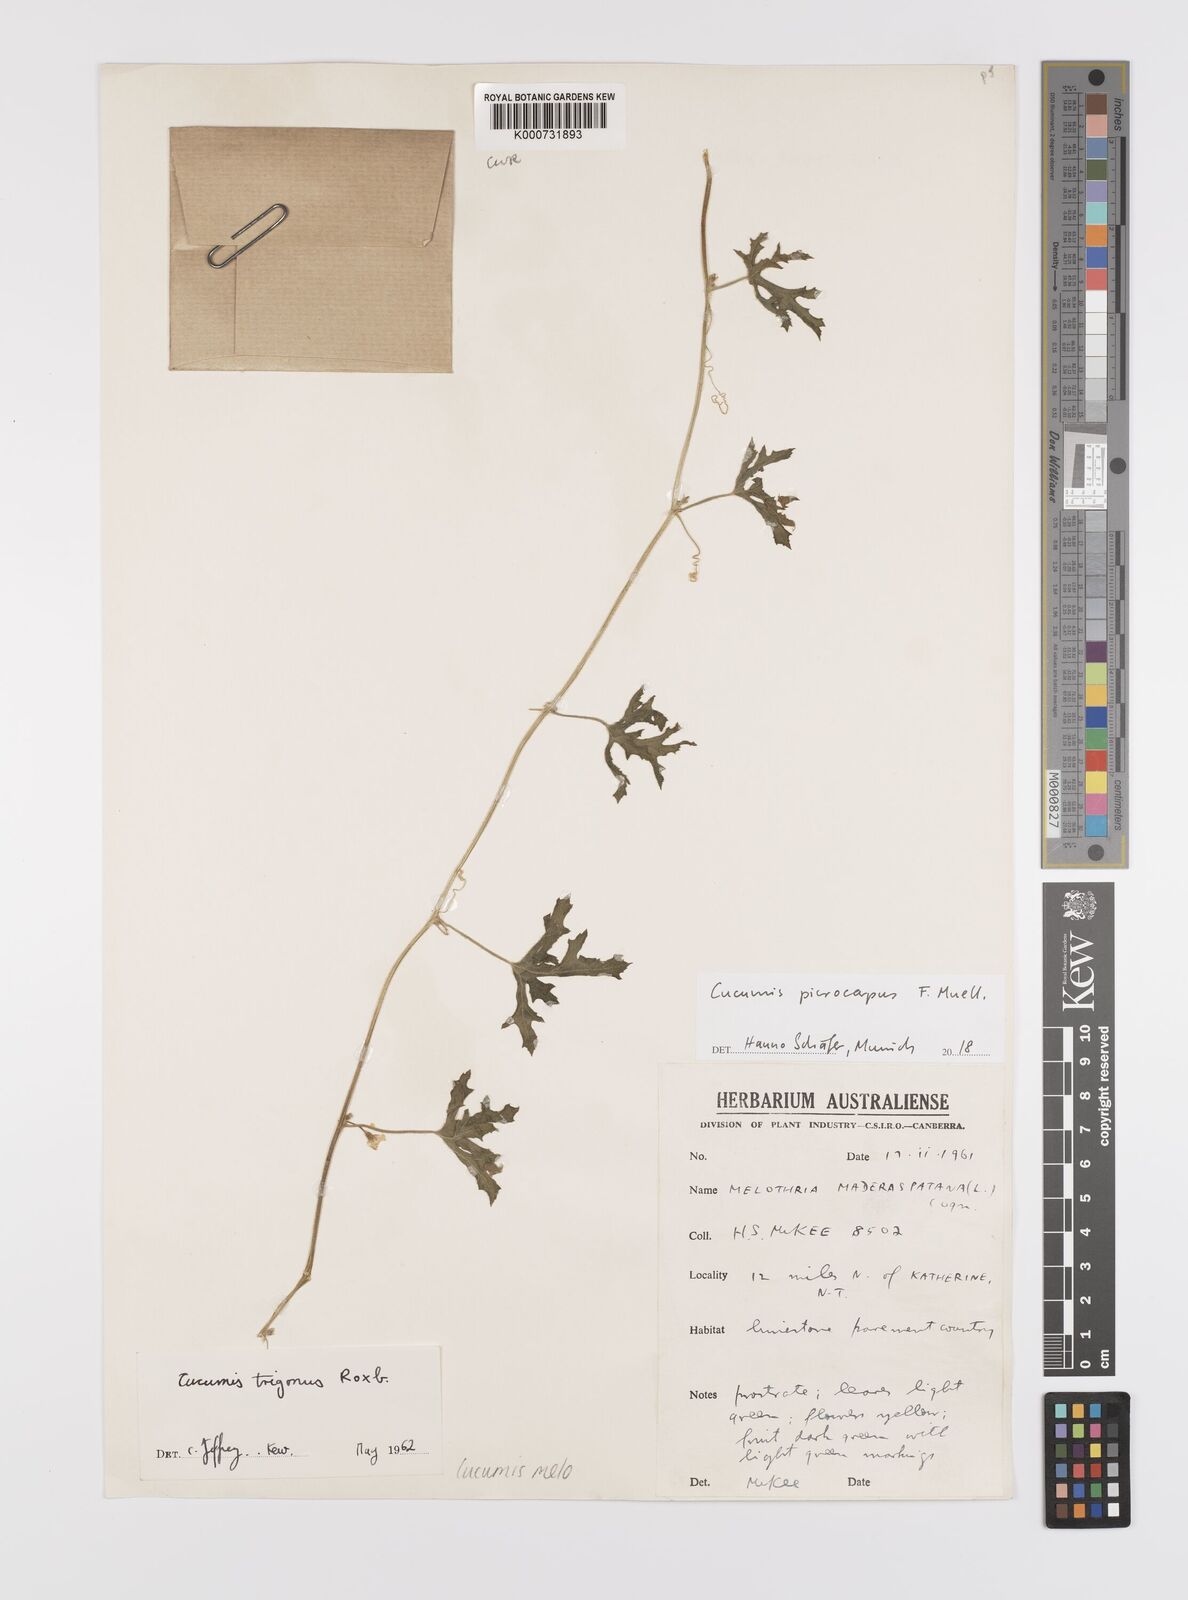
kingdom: Plantae
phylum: Tracheophyta
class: Magnoliopsida
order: Cucurbitales
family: Cucurbitaceae
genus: Cucumis
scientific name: Cucumis melo
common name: Melon
